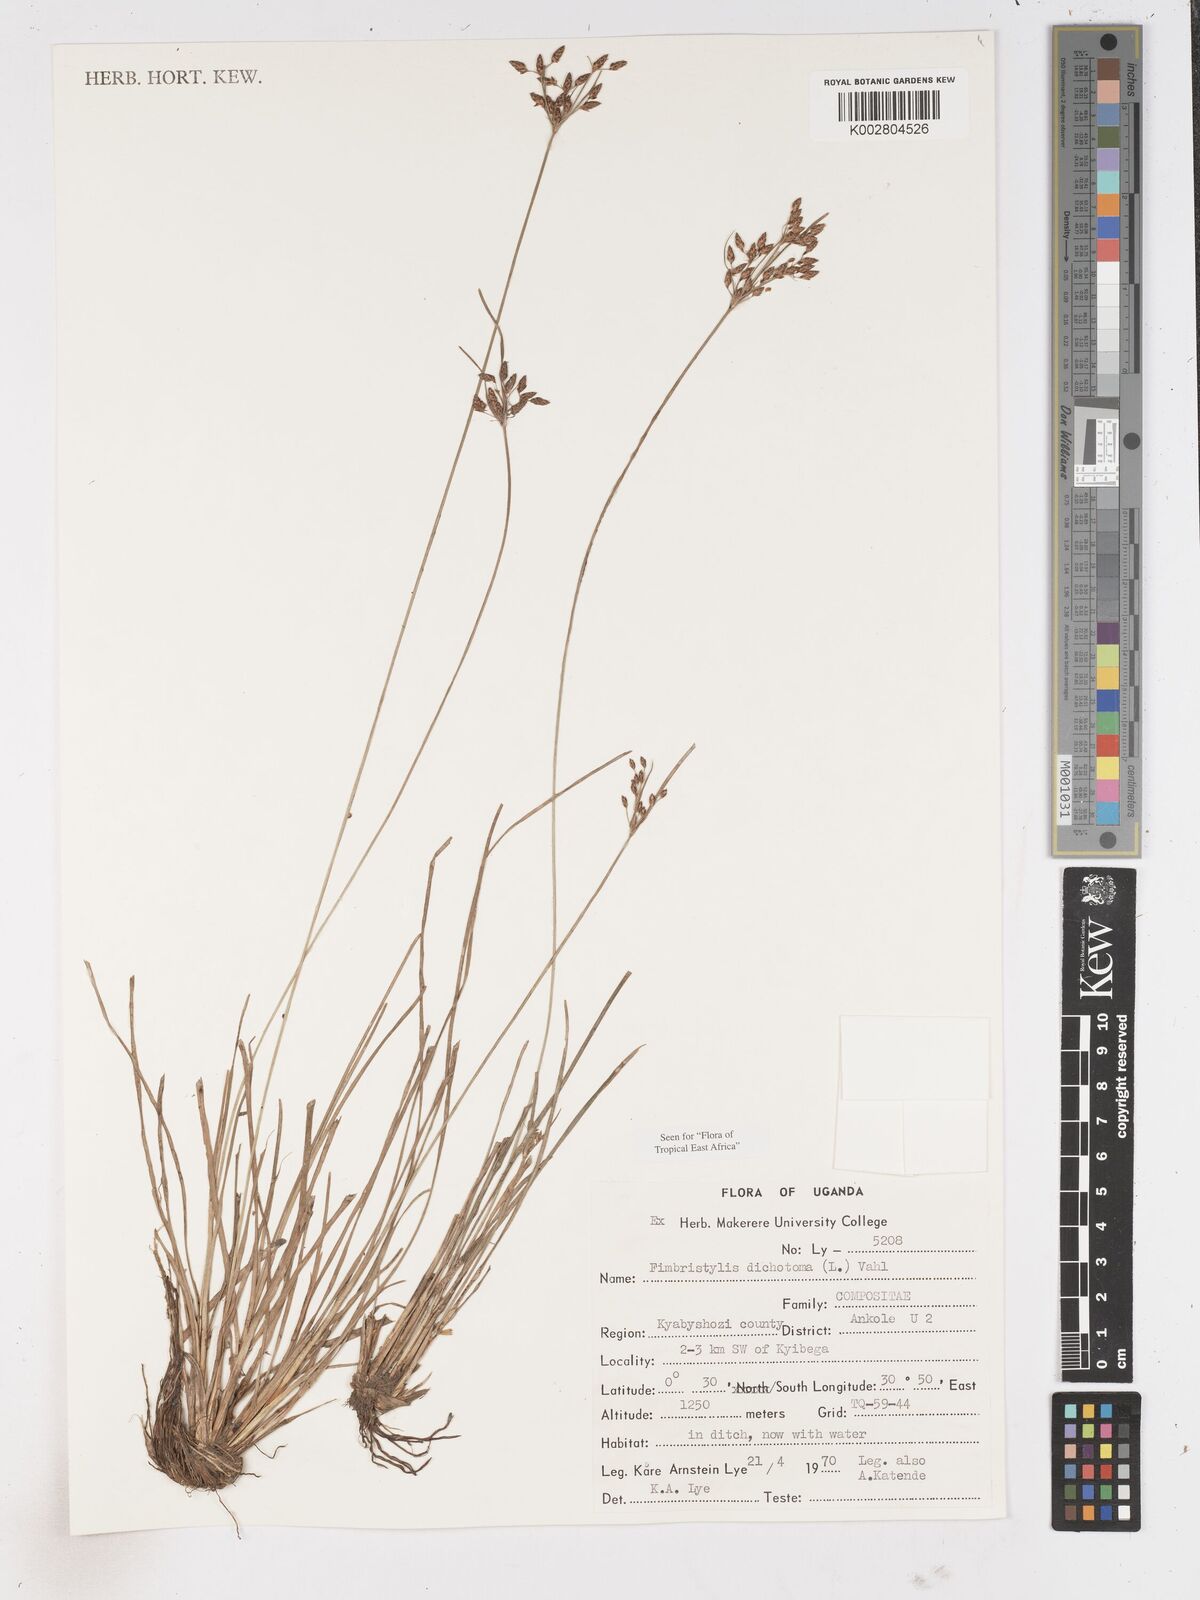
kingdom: Plantae
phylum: Tracheophyta
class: Liliopsida
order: Poales
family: Cyperaceae
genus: Fimbristylis
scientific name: Fimbristylis dichotoma
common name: Forked fimbry
